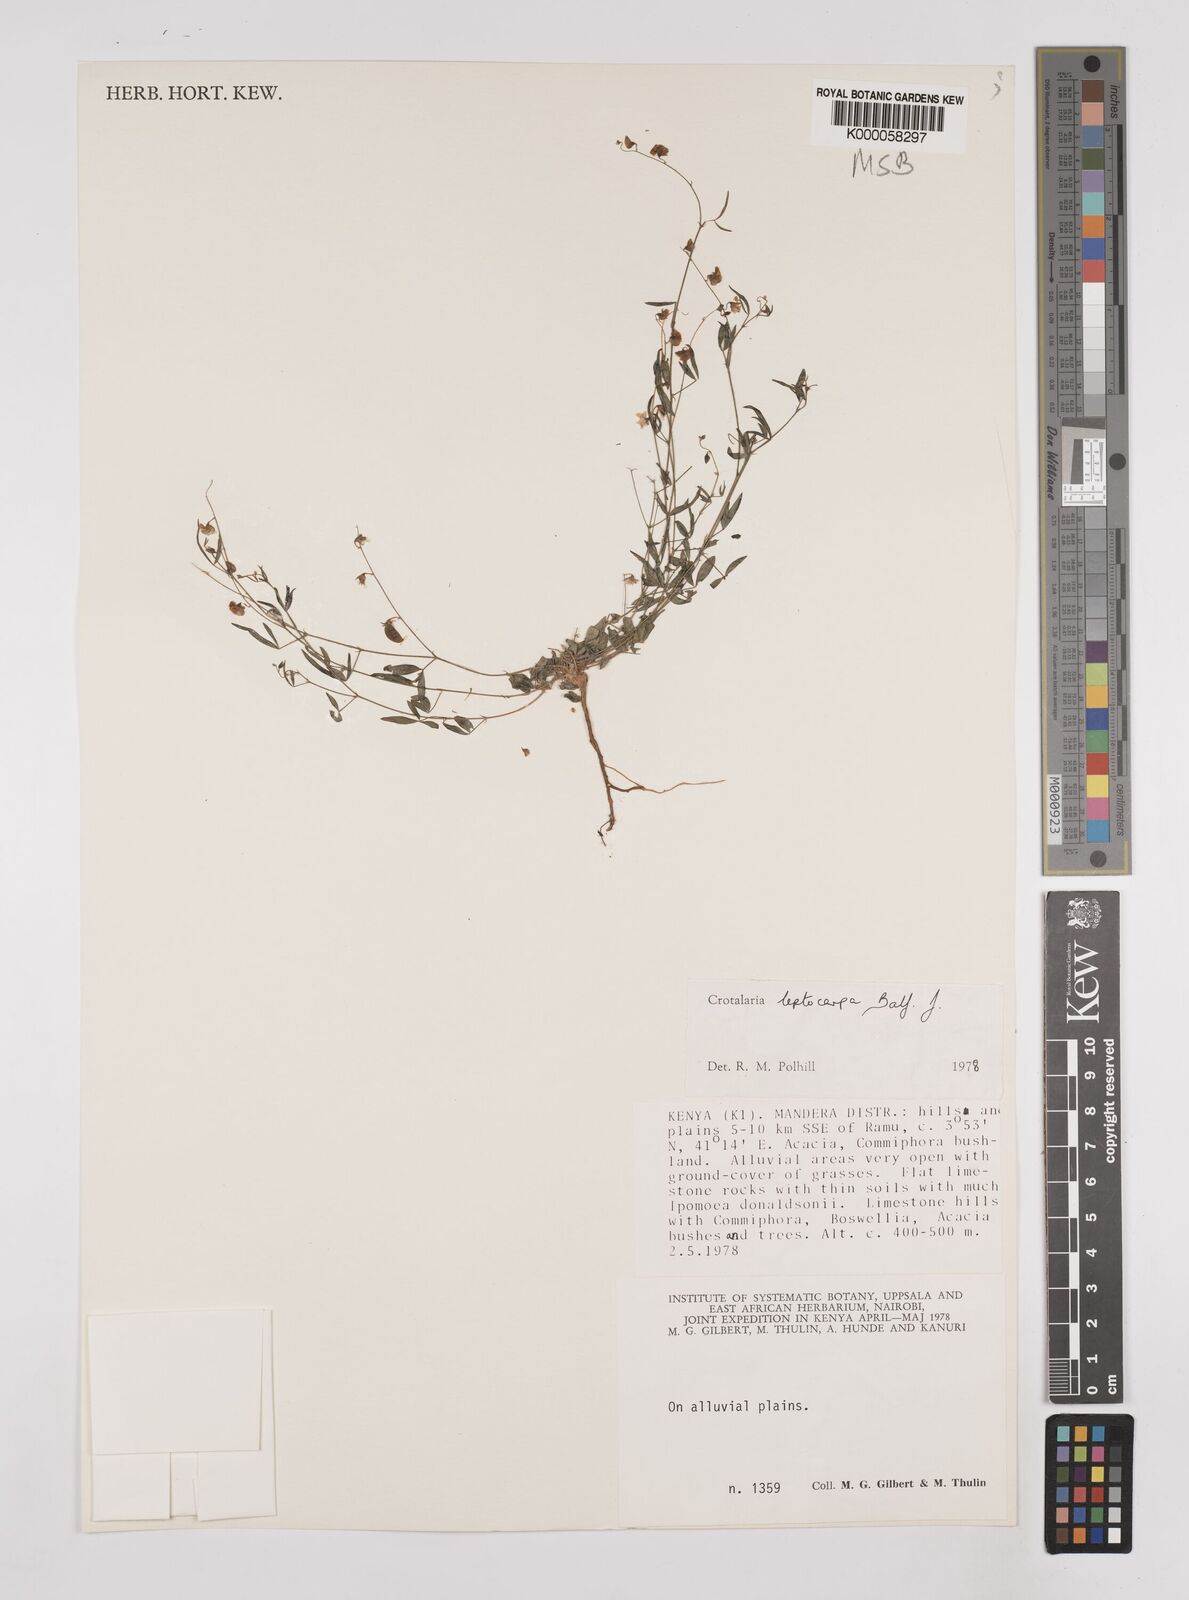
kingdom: Plantae
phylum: Tracheophyta
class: Magnoliopsida
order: Fabales
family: Fabaceae
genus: Crotalaria
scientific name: Crotalaria leptocarpa
